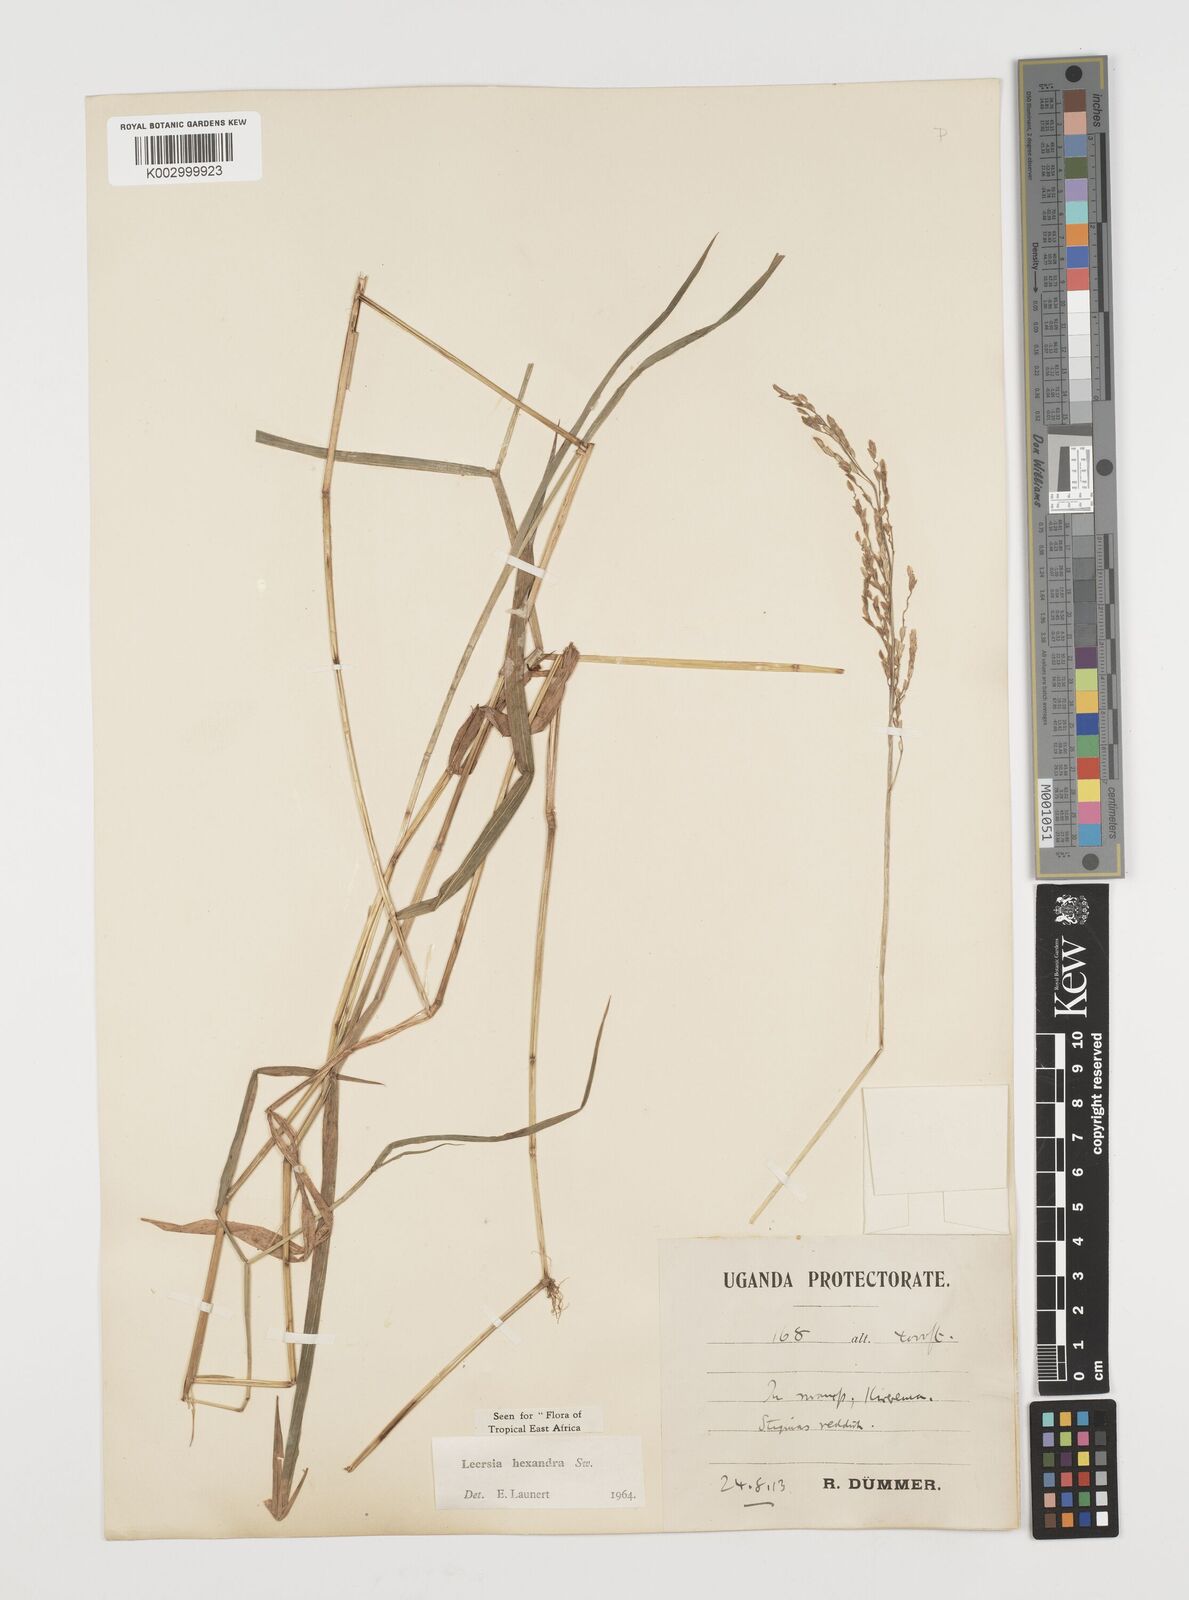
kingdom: Plantae
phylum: Tracheophyta
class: Liliopsida
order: Poales
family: Poaceae
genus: Leersia
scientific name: Leersia hexandra
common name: Southern cut grass
